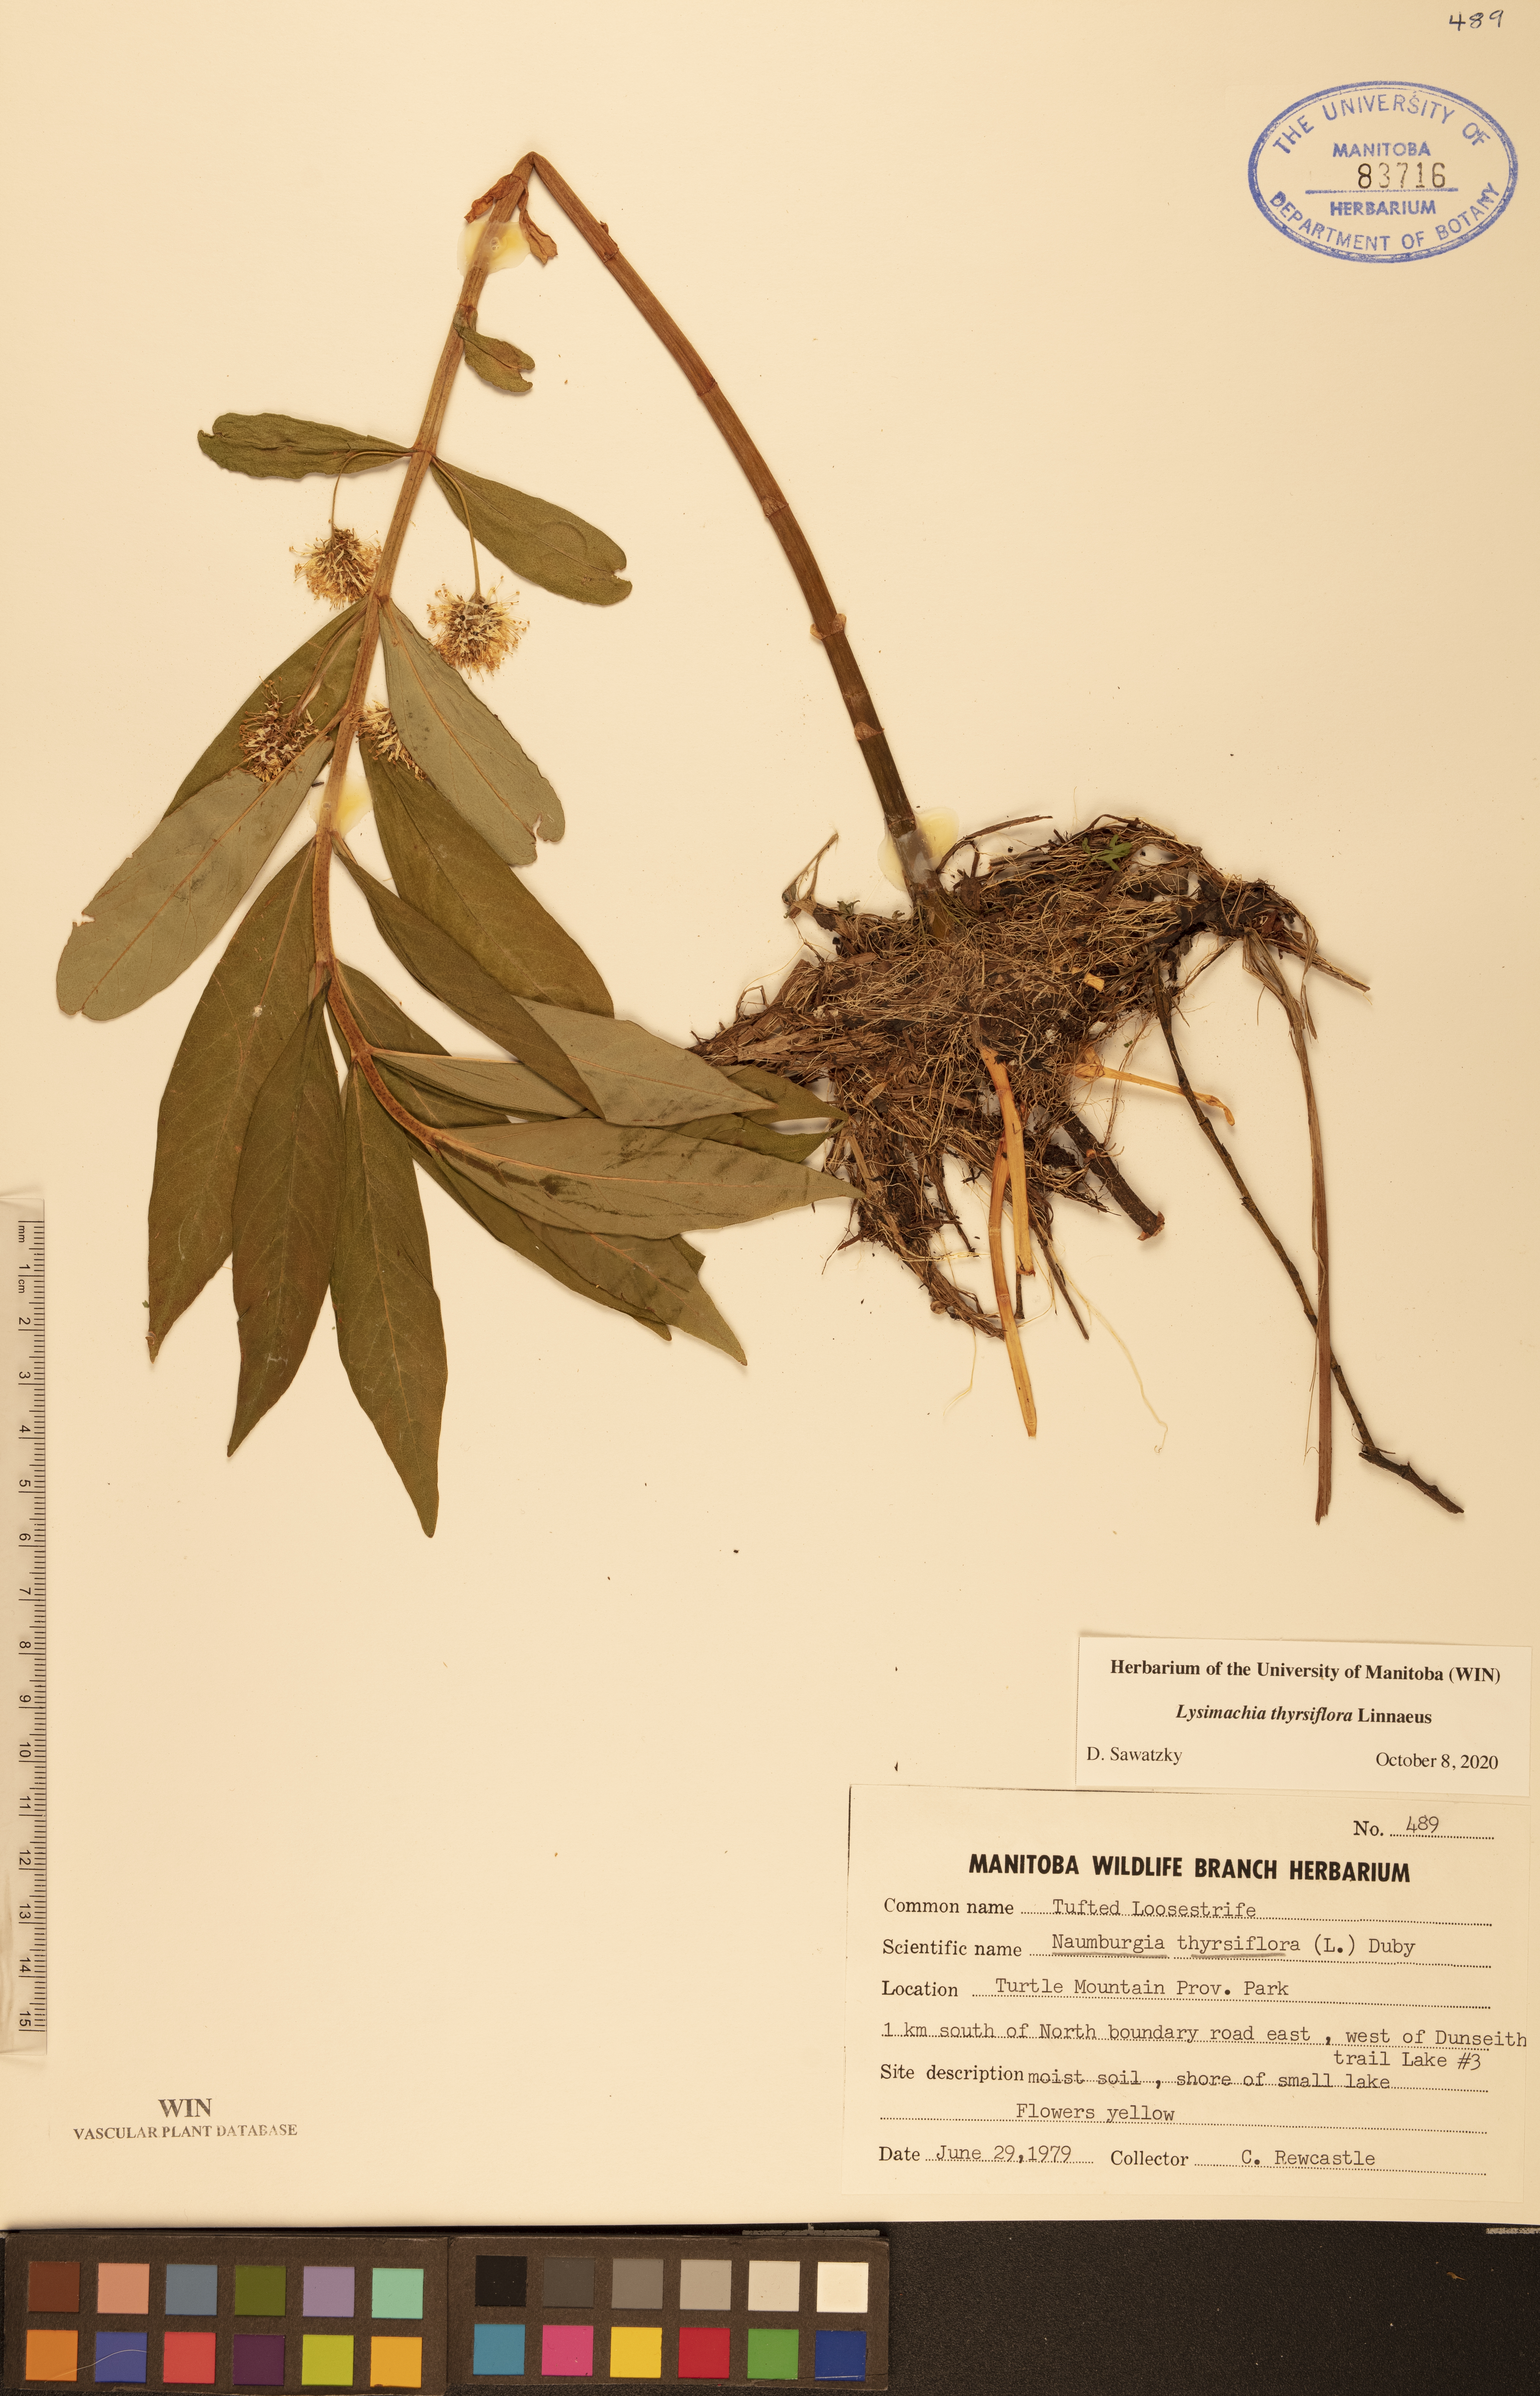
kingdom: Plantae
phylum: Tracheophyta
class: Magnoliopsida
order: Ericales
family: Primulaceae
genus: Lysimachia
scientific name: Lysimachia thyrsiflora
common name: Tufted loosestrife
